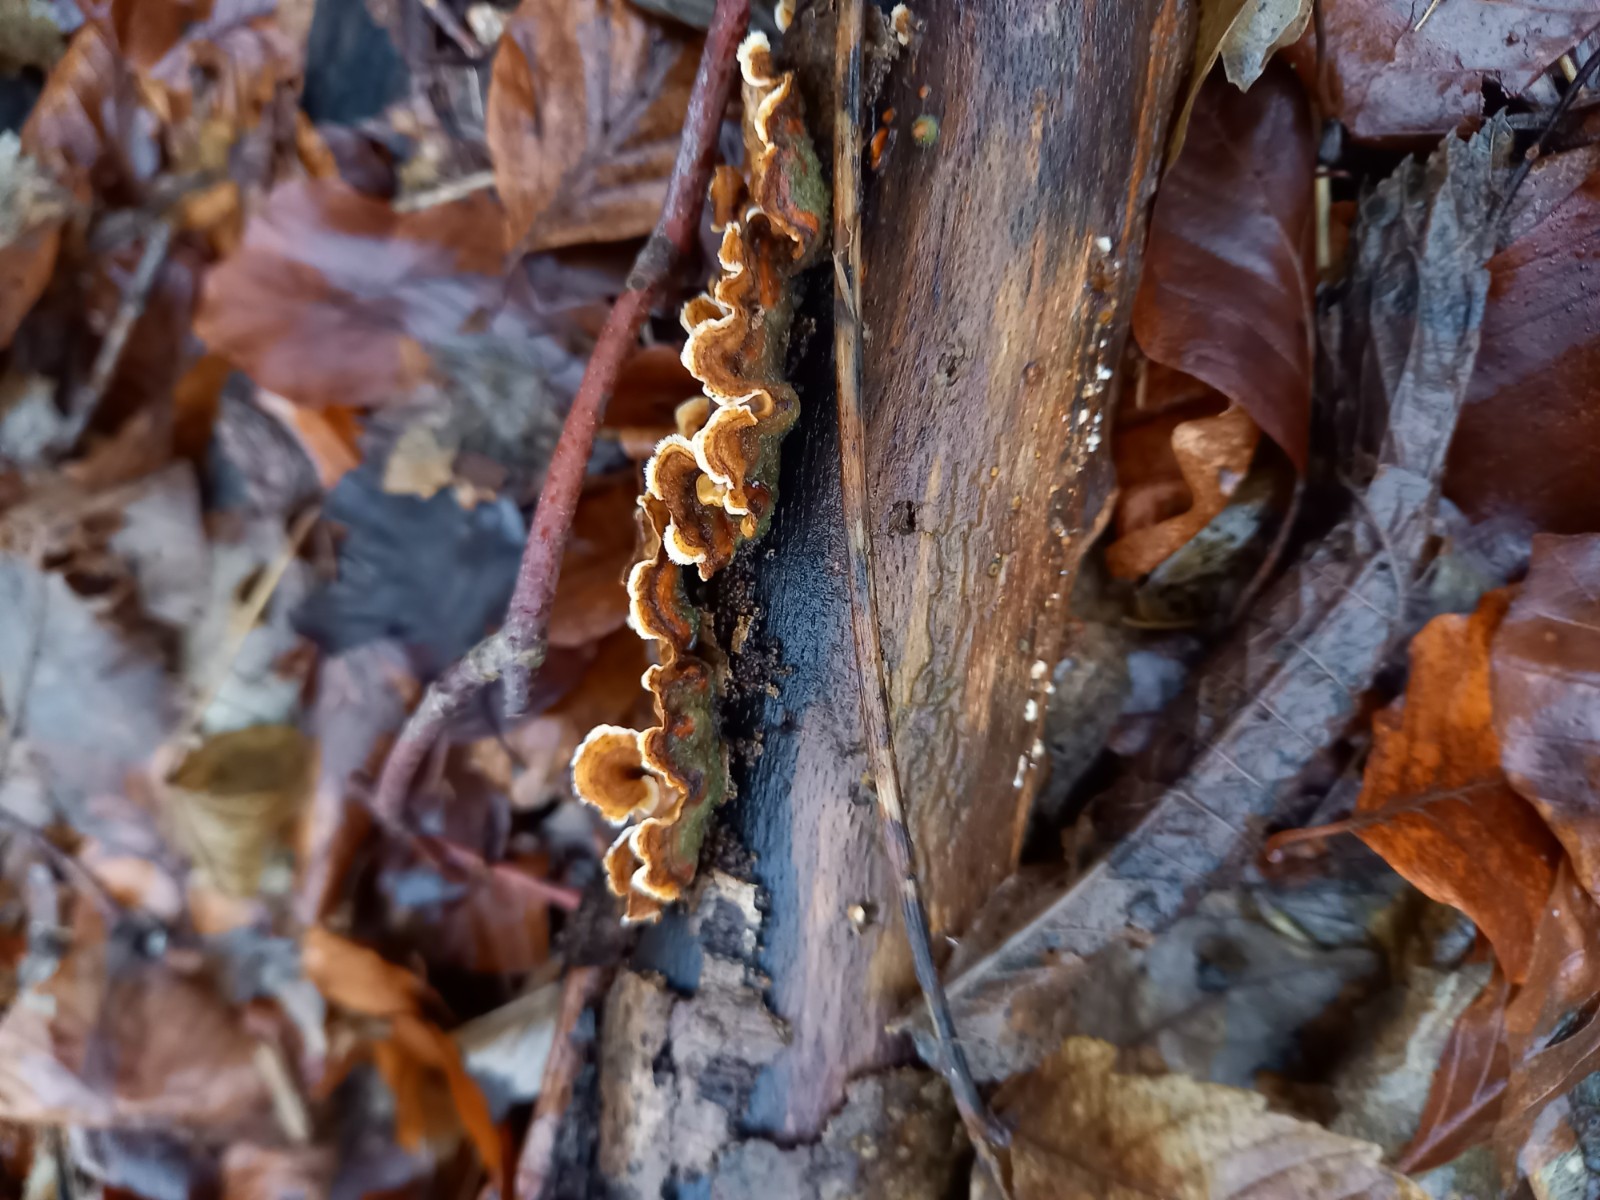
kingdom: Fungi
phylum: Basidiomycota
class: Agaricomycetes
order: Russulales
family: Stereaceae
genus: Stereum
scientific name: Stereum hirsutum
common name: håret lædersvamp
